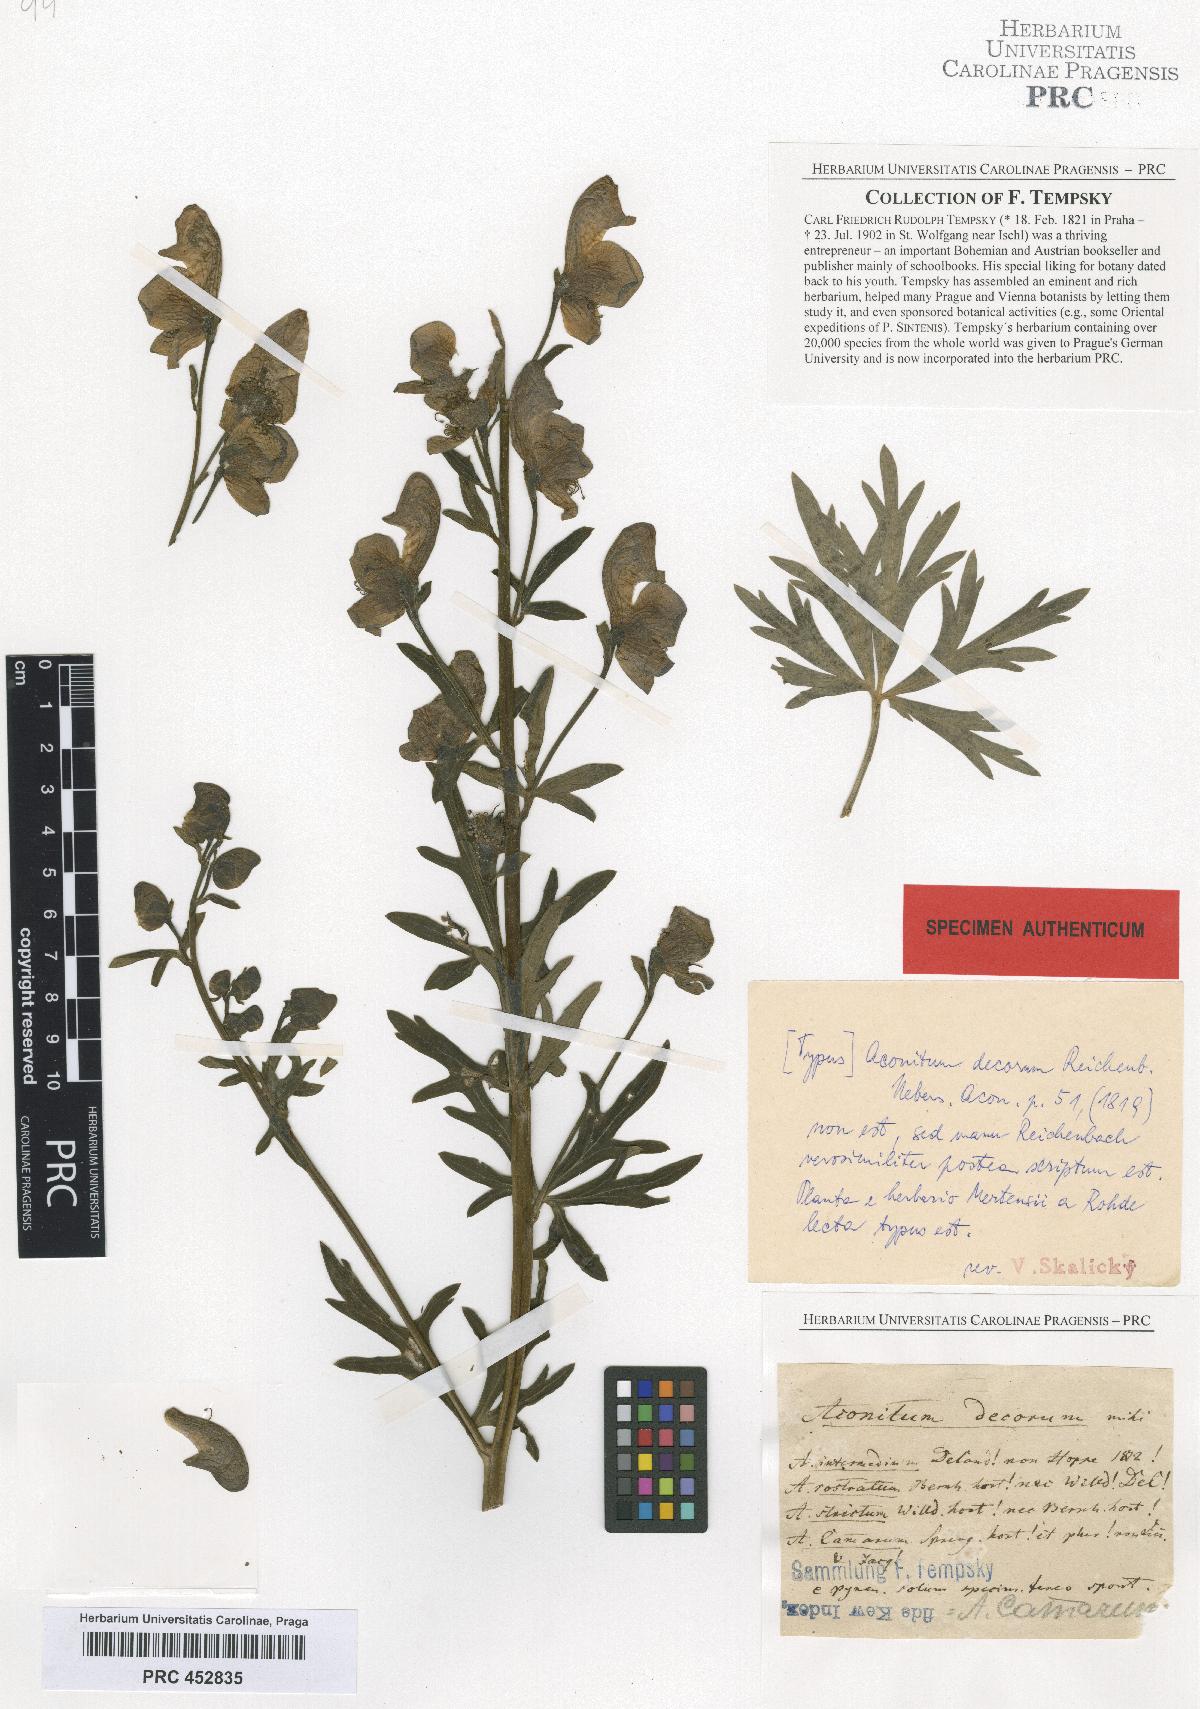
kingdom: Plantae
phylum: Tracheophyta
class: Magnoliopsida
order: Ranunculales
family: Ranunculaceae
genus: Aconitum
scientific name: Aconitum degenii
